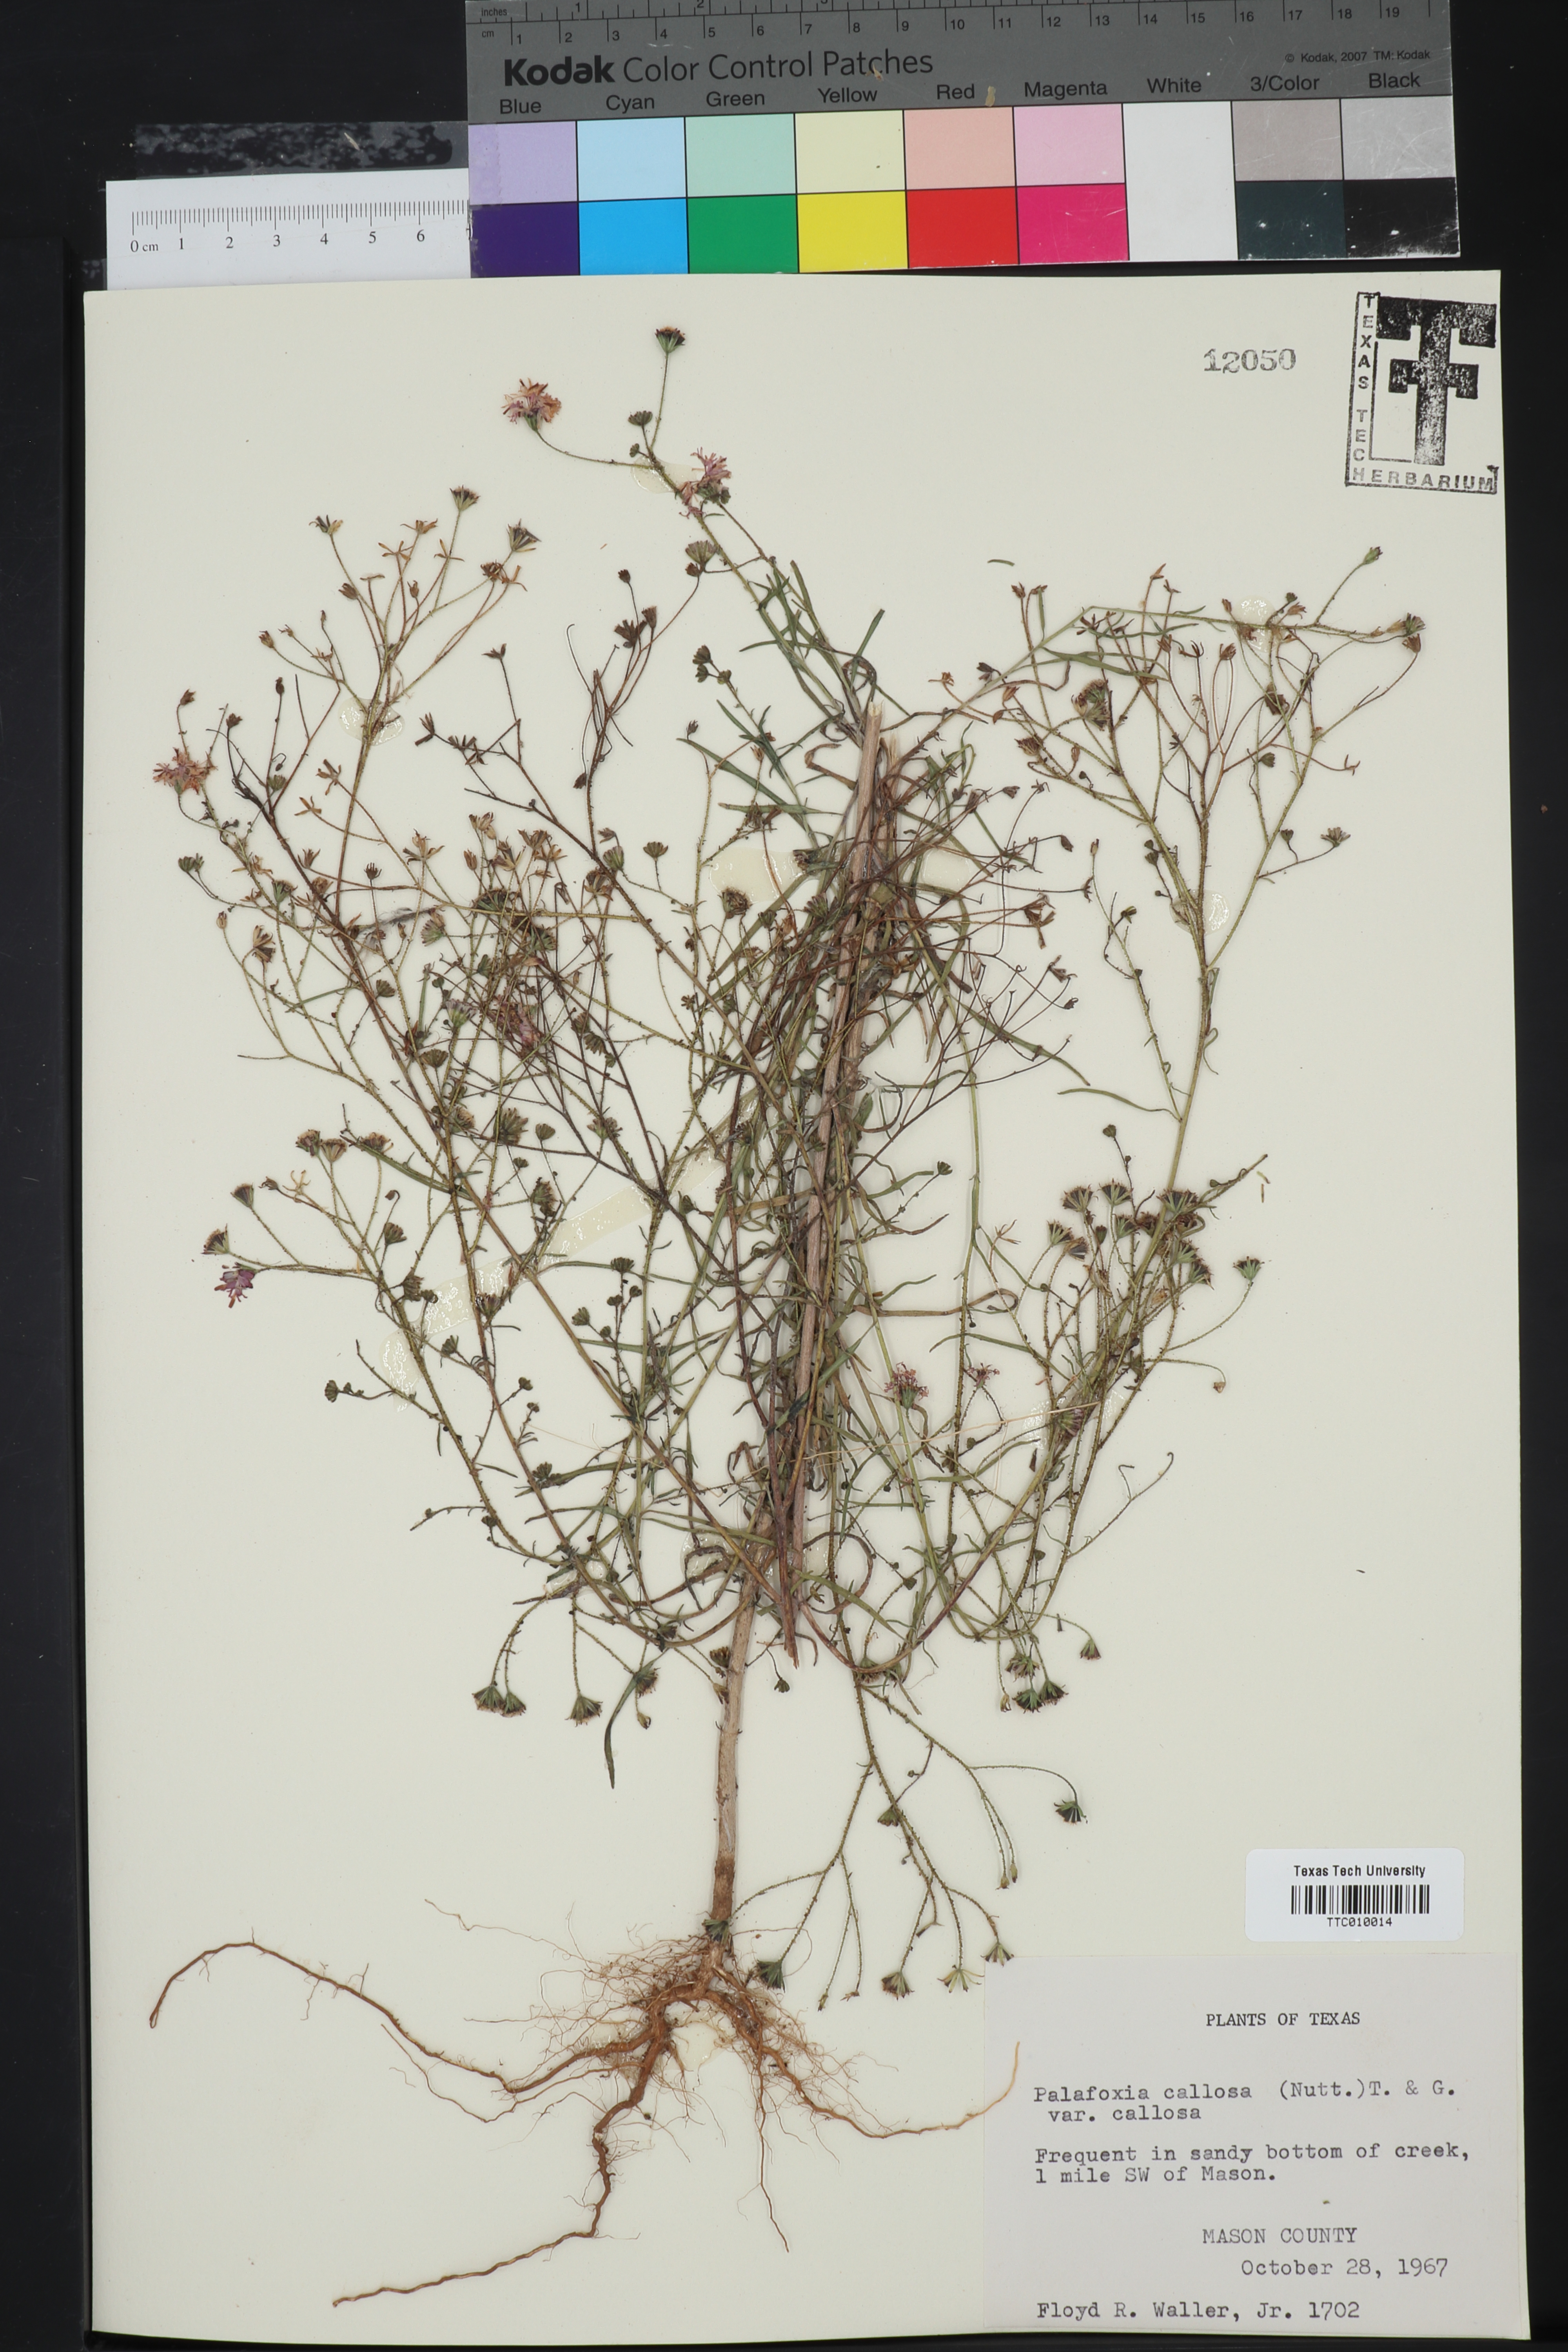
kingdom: Plantae
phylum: Tracheophyta
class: Magnoliopsida
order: Asterales
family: Asteraceae
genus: Palafoxia
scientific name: Palafoxia callosa
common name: Small palafox
